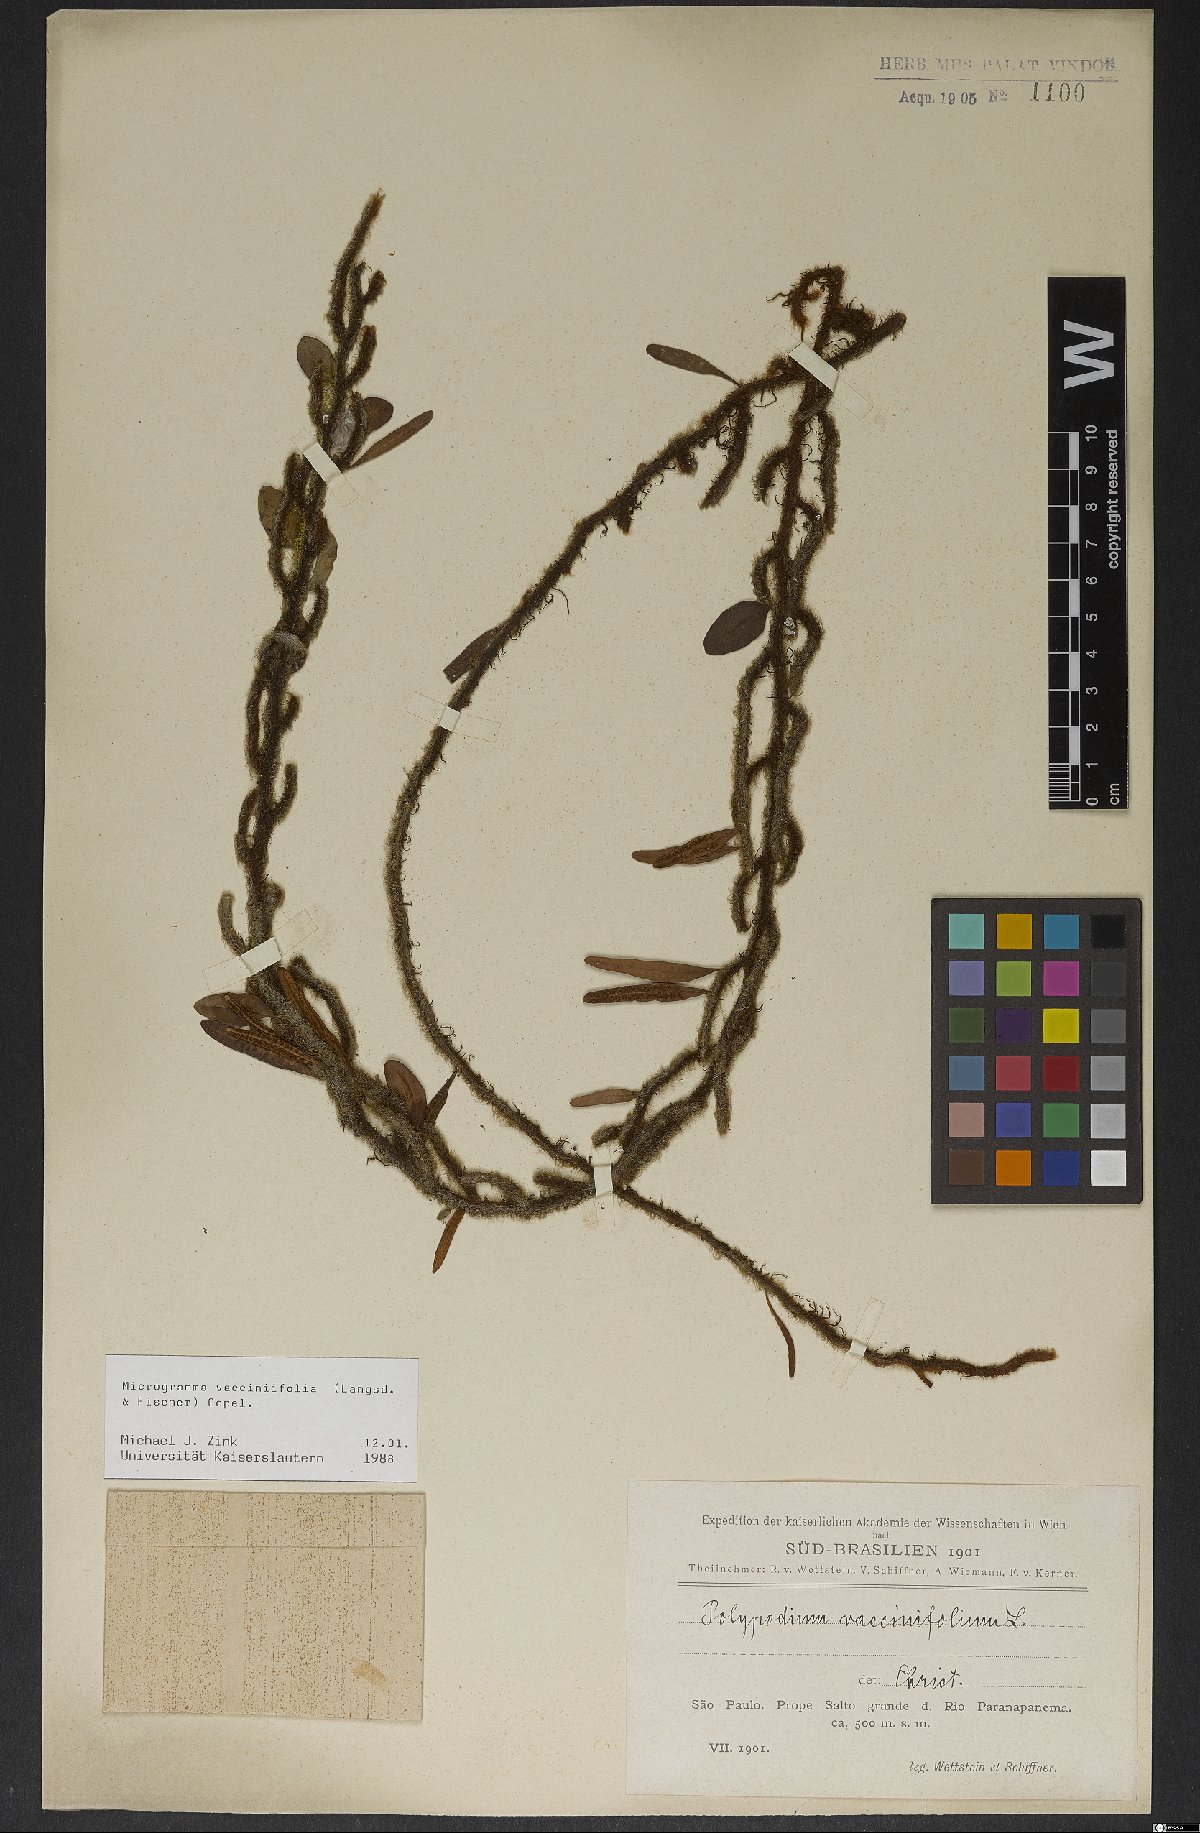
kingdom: Plantae
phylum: Tracheophyta
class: Polypodiopsida
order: Polypodiales
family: Polypodiaceae
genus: Microgramma
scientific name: Microgramma vaccinifolia
